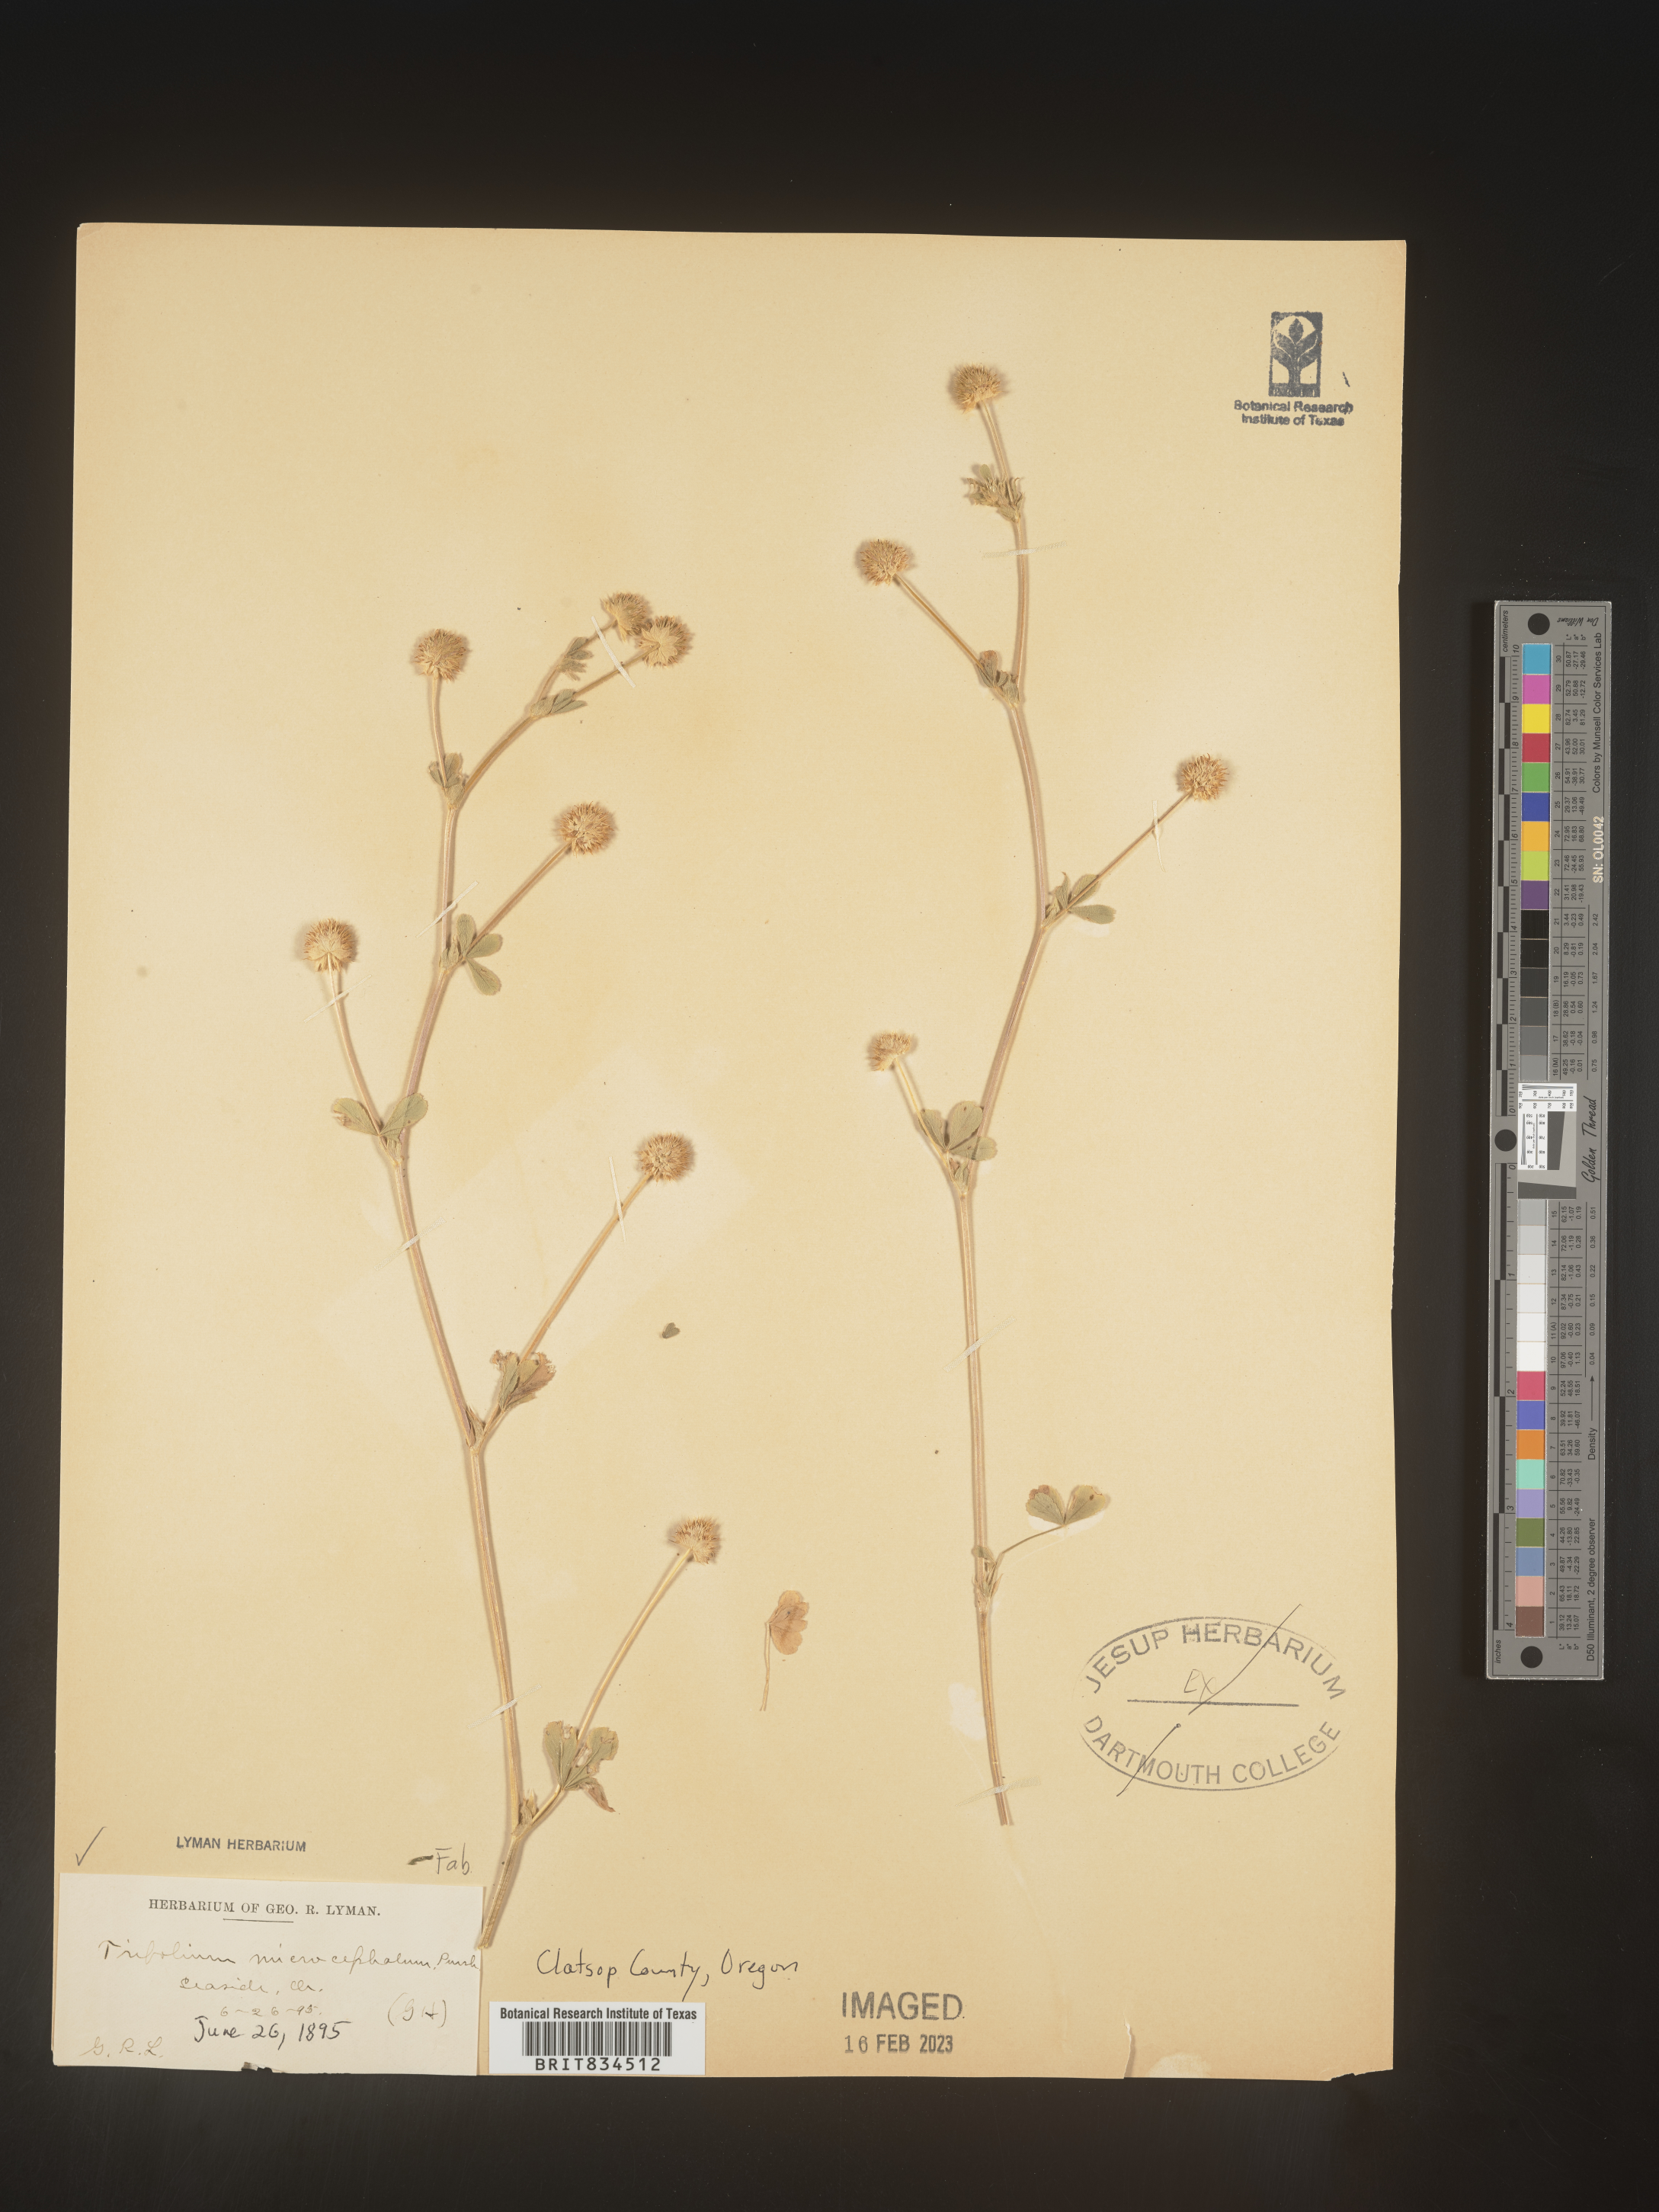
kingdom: Plantae
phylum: Tracheophyta
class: Magnoliopsida
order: Fabales
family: Fabaceae
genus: Trifolium
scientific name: Trifolium
